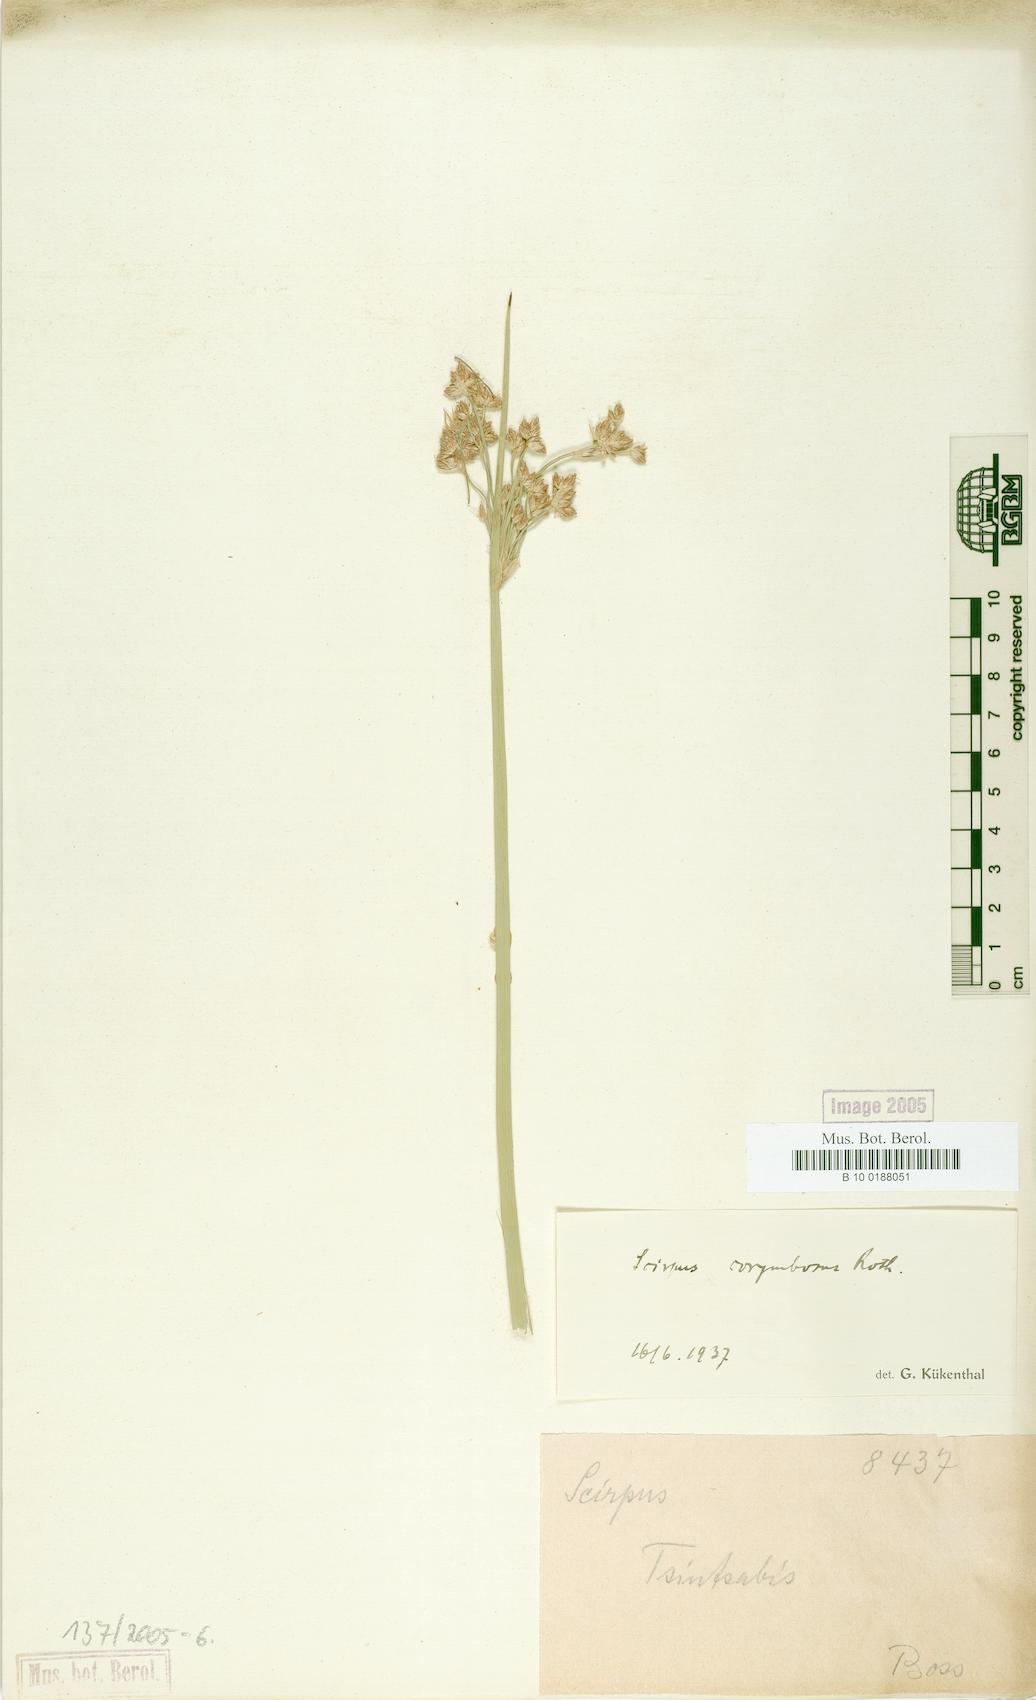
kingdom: Plantae
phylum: Tracheophyta
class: Liliopsida
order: Poales
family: Cyperaceae
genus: Scirpus
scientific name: Scirpus corymbosus
